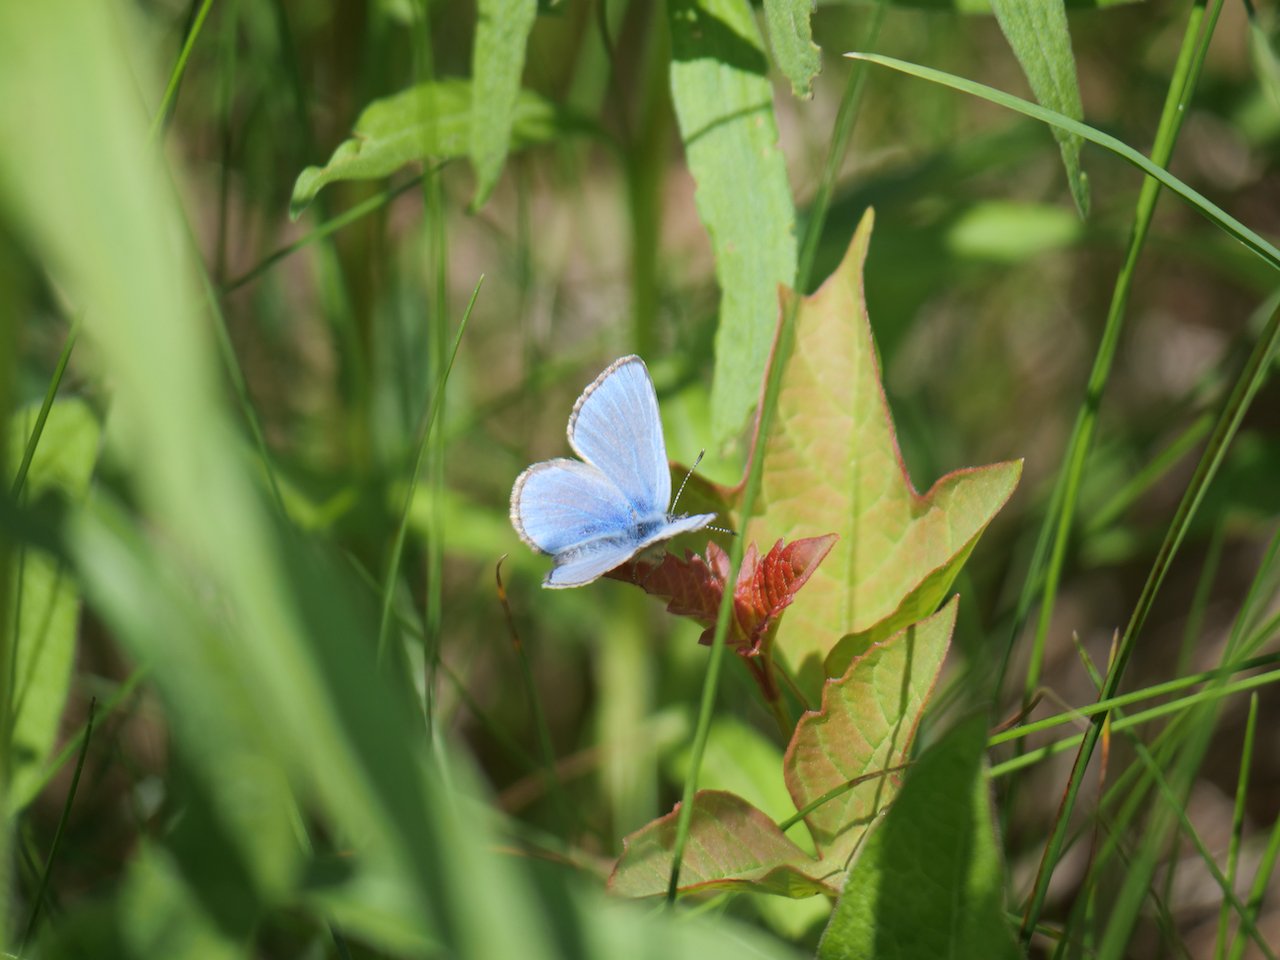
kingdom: Animalia
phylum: Arthropoda
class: Insecta
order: Lepidoptera
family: Lycaenidae
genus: Glaucopsyche
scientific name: Glaucopsyche lygdamus
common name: Silvery Blue
